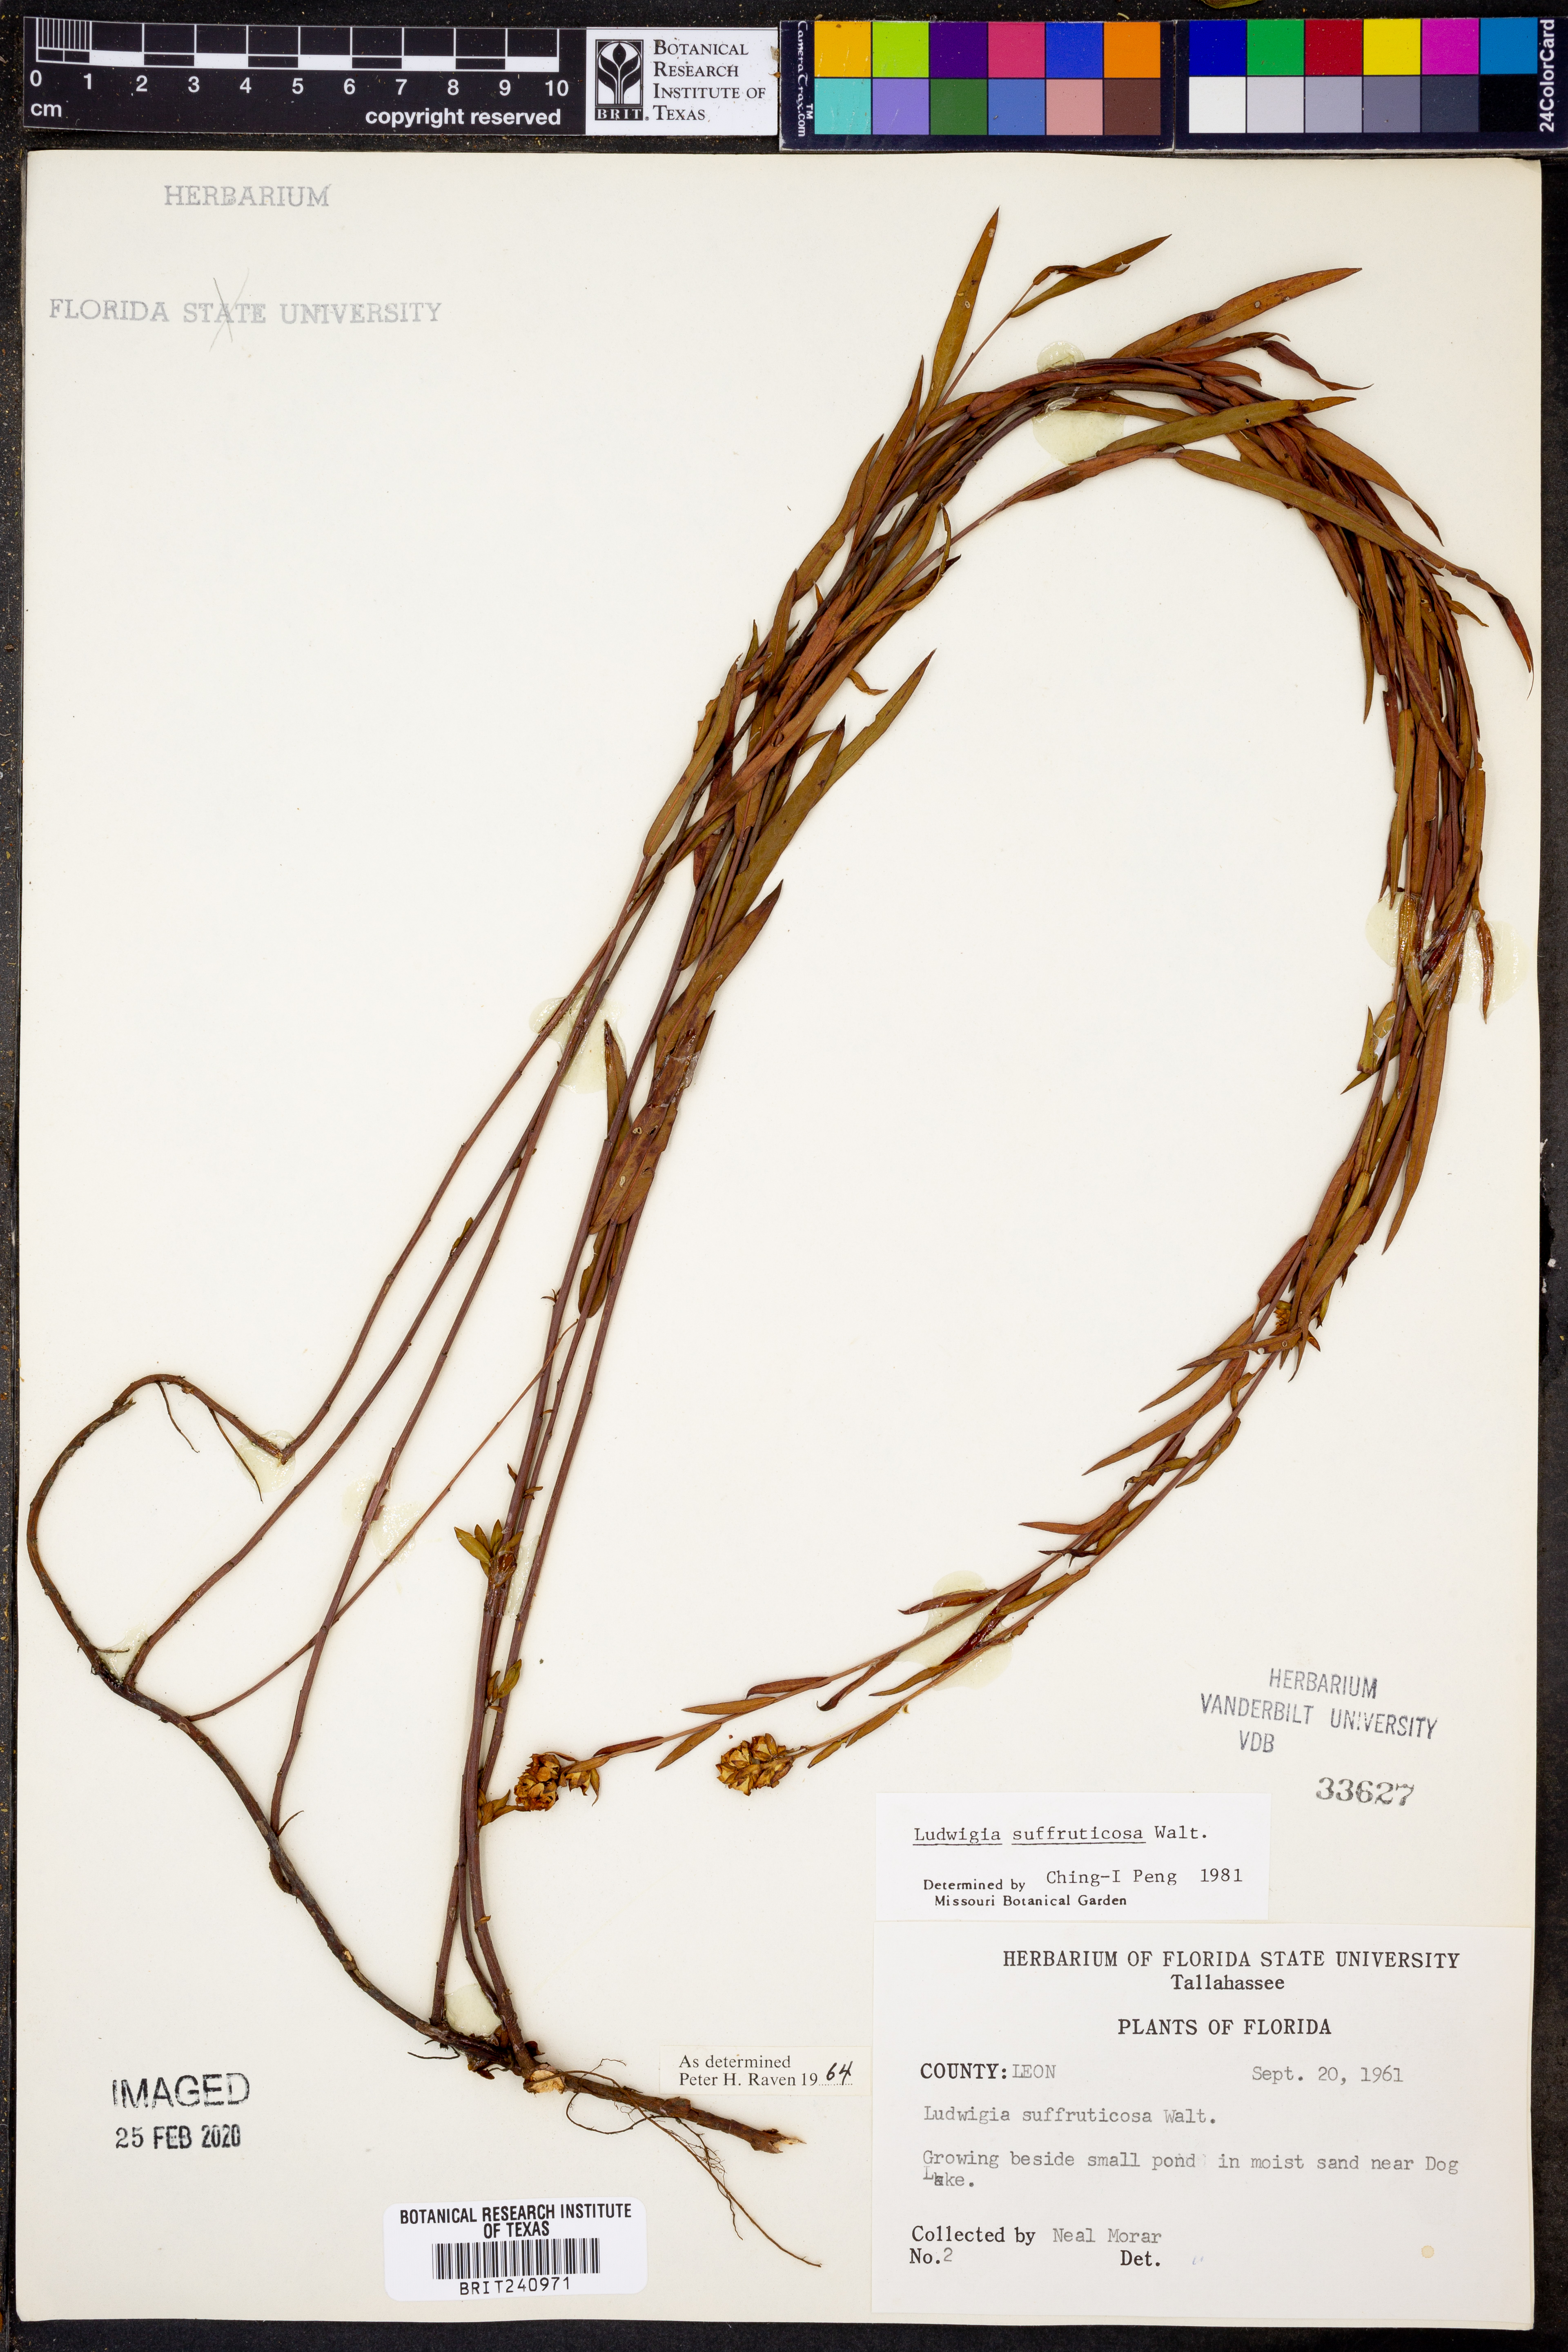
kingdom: Plantae
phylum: Tracheophyta
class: Magnoliopsida
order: Myrtales
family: Onagraceae
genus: Ludwigia
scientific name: Ludwigia suffruticosa
